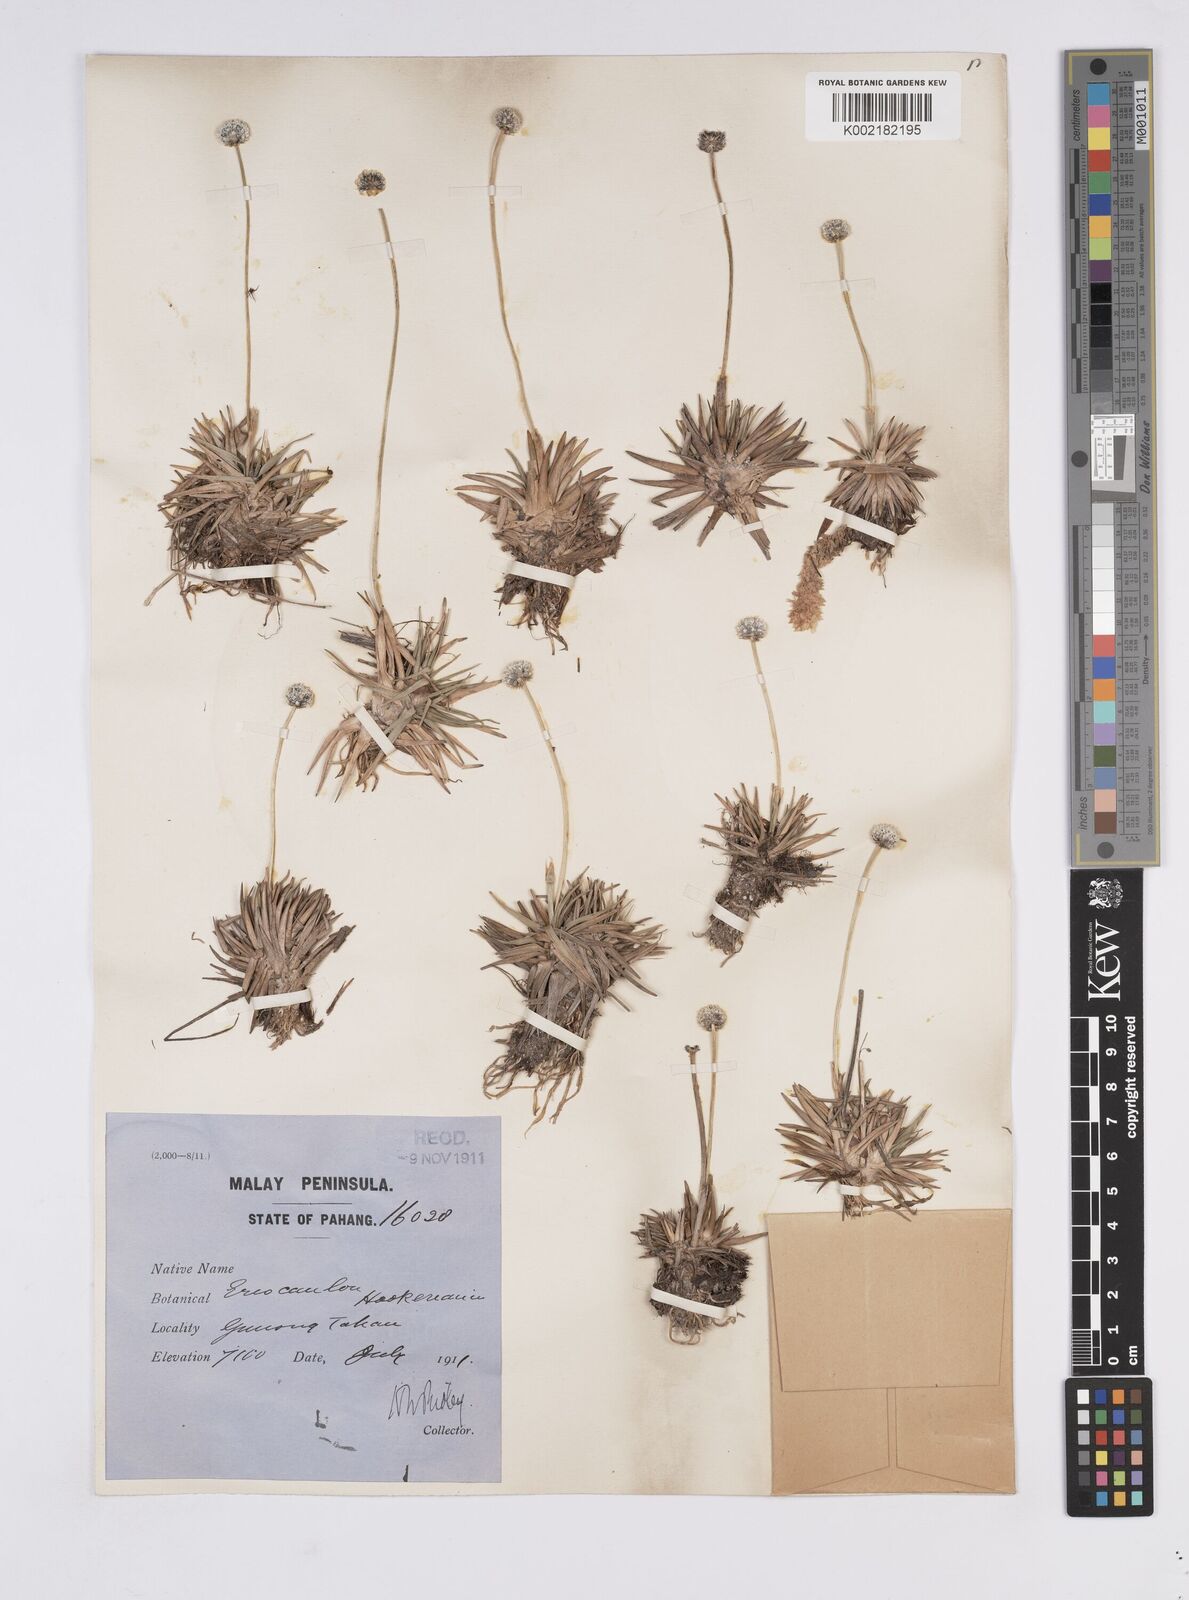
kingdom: Plantae
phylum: Tracheophyta
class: Liliopsida
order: Poales
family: Eriocaulaceae
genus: Eriocaulon
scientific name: Eriocaulon hookerianum
